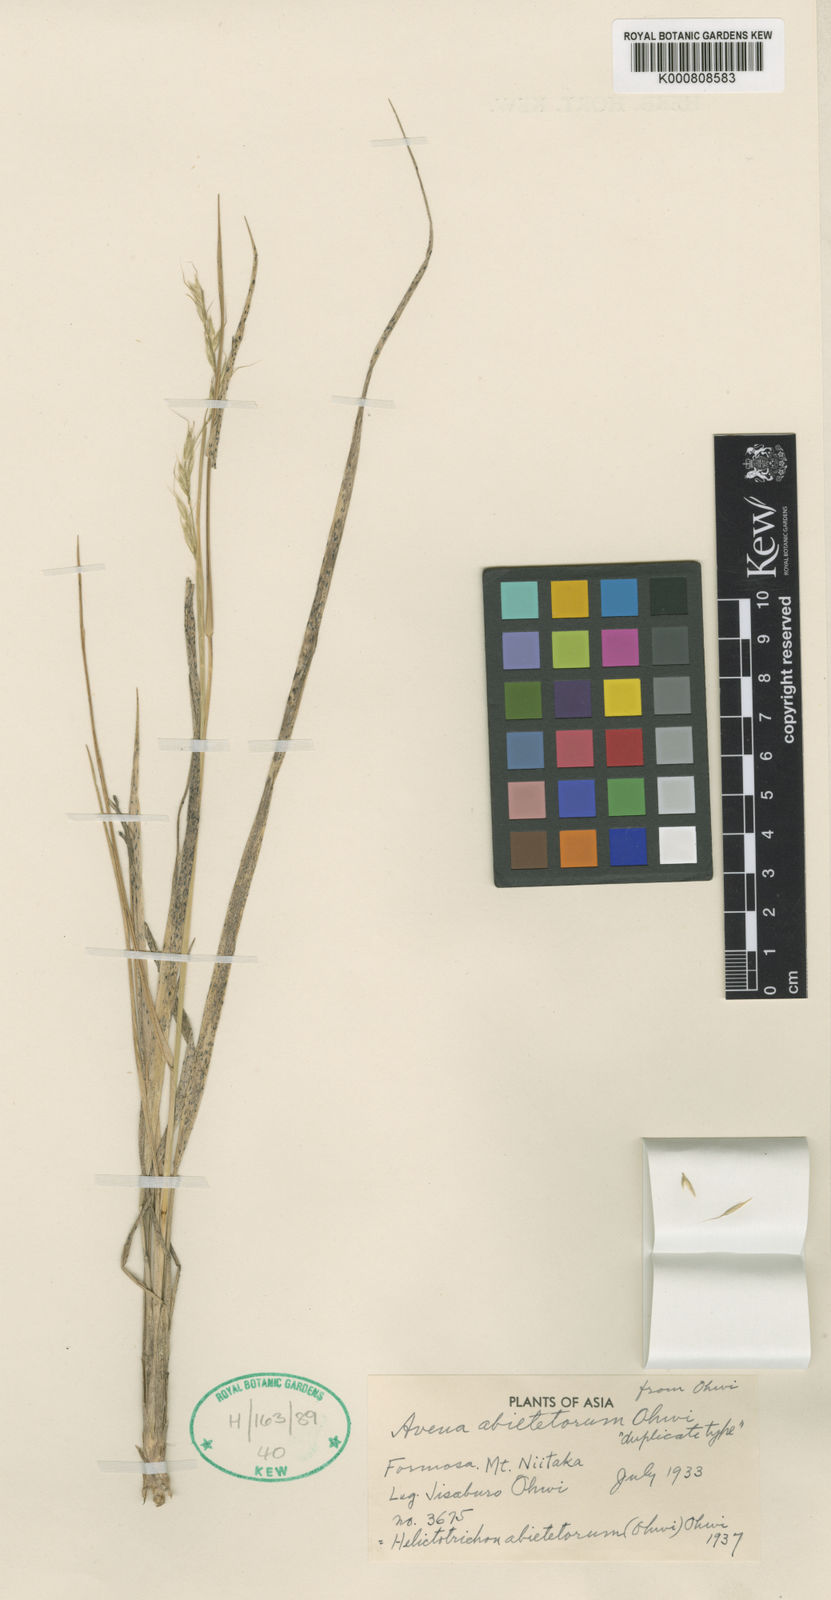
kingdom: Plantae
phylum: Tracheophyta
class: Liliopsida
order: Poales
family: Poaceae
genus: Helictotrichon
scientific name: Helictotrichon
